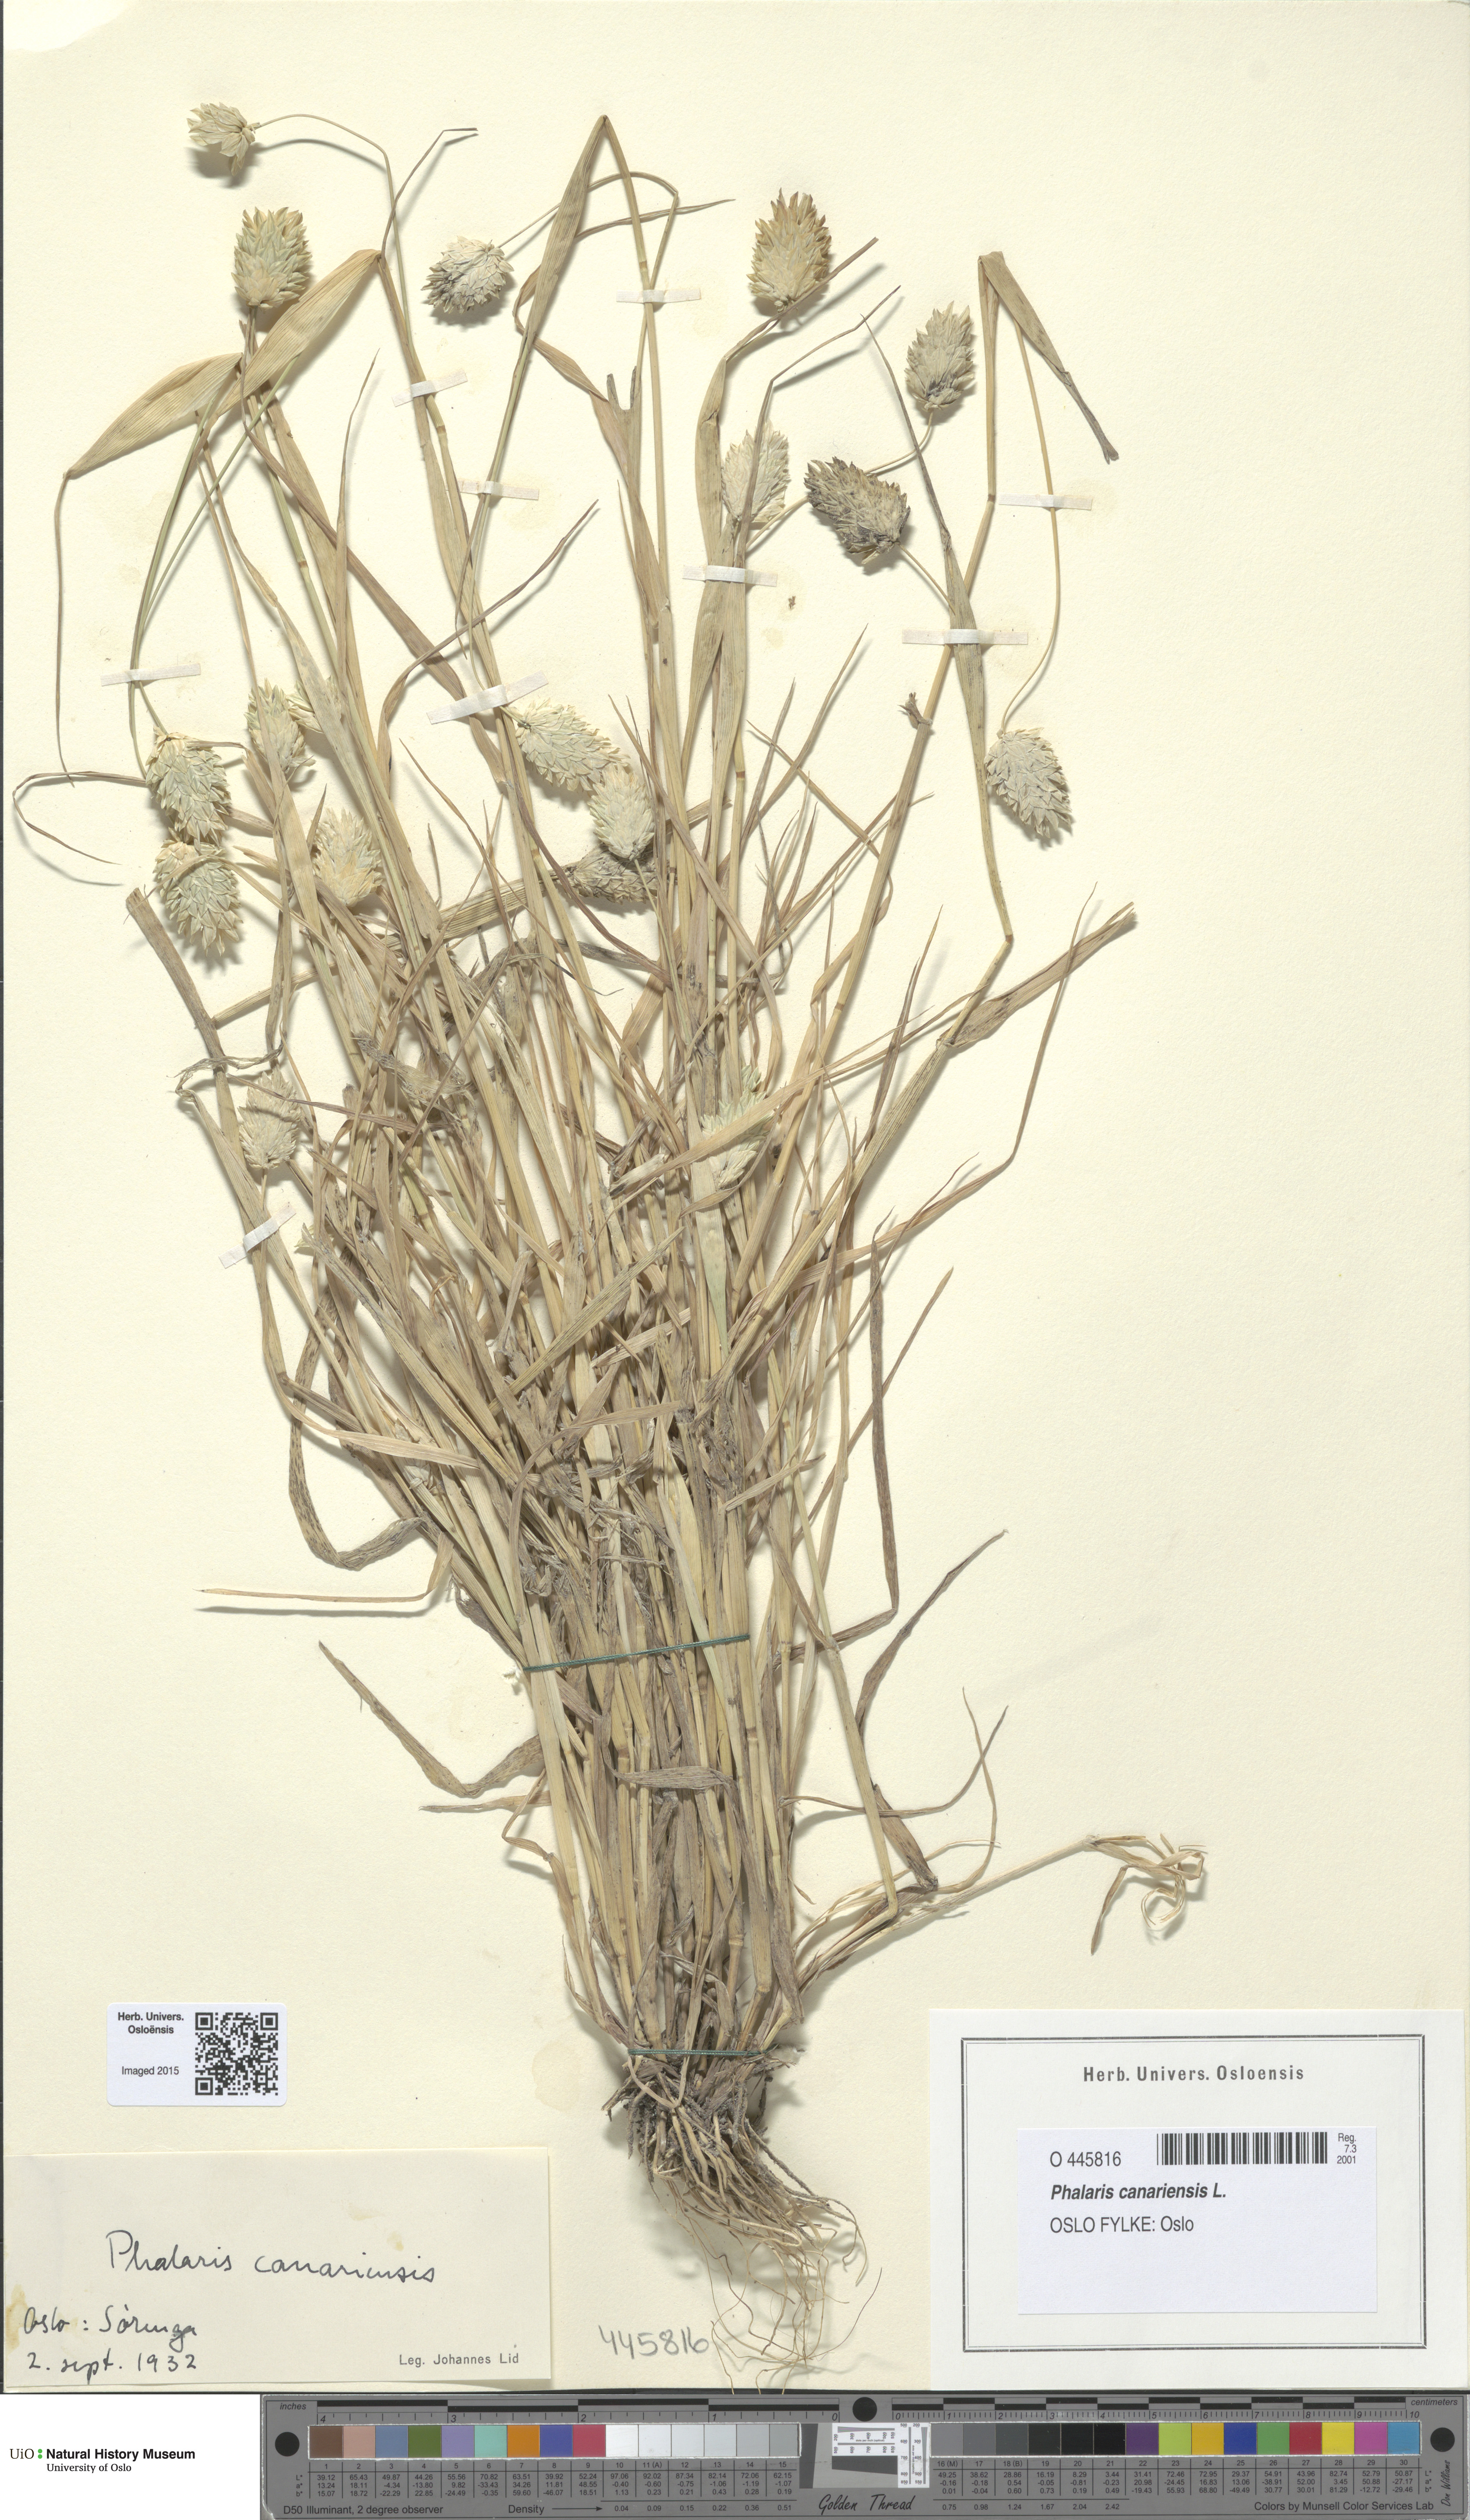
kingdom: Plantae
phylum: Tracheophyta
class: Liliopsida
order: Poales
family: Poaceae
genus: Phalaris
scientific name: Phalaris canariensis
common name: Annual canarygrass
